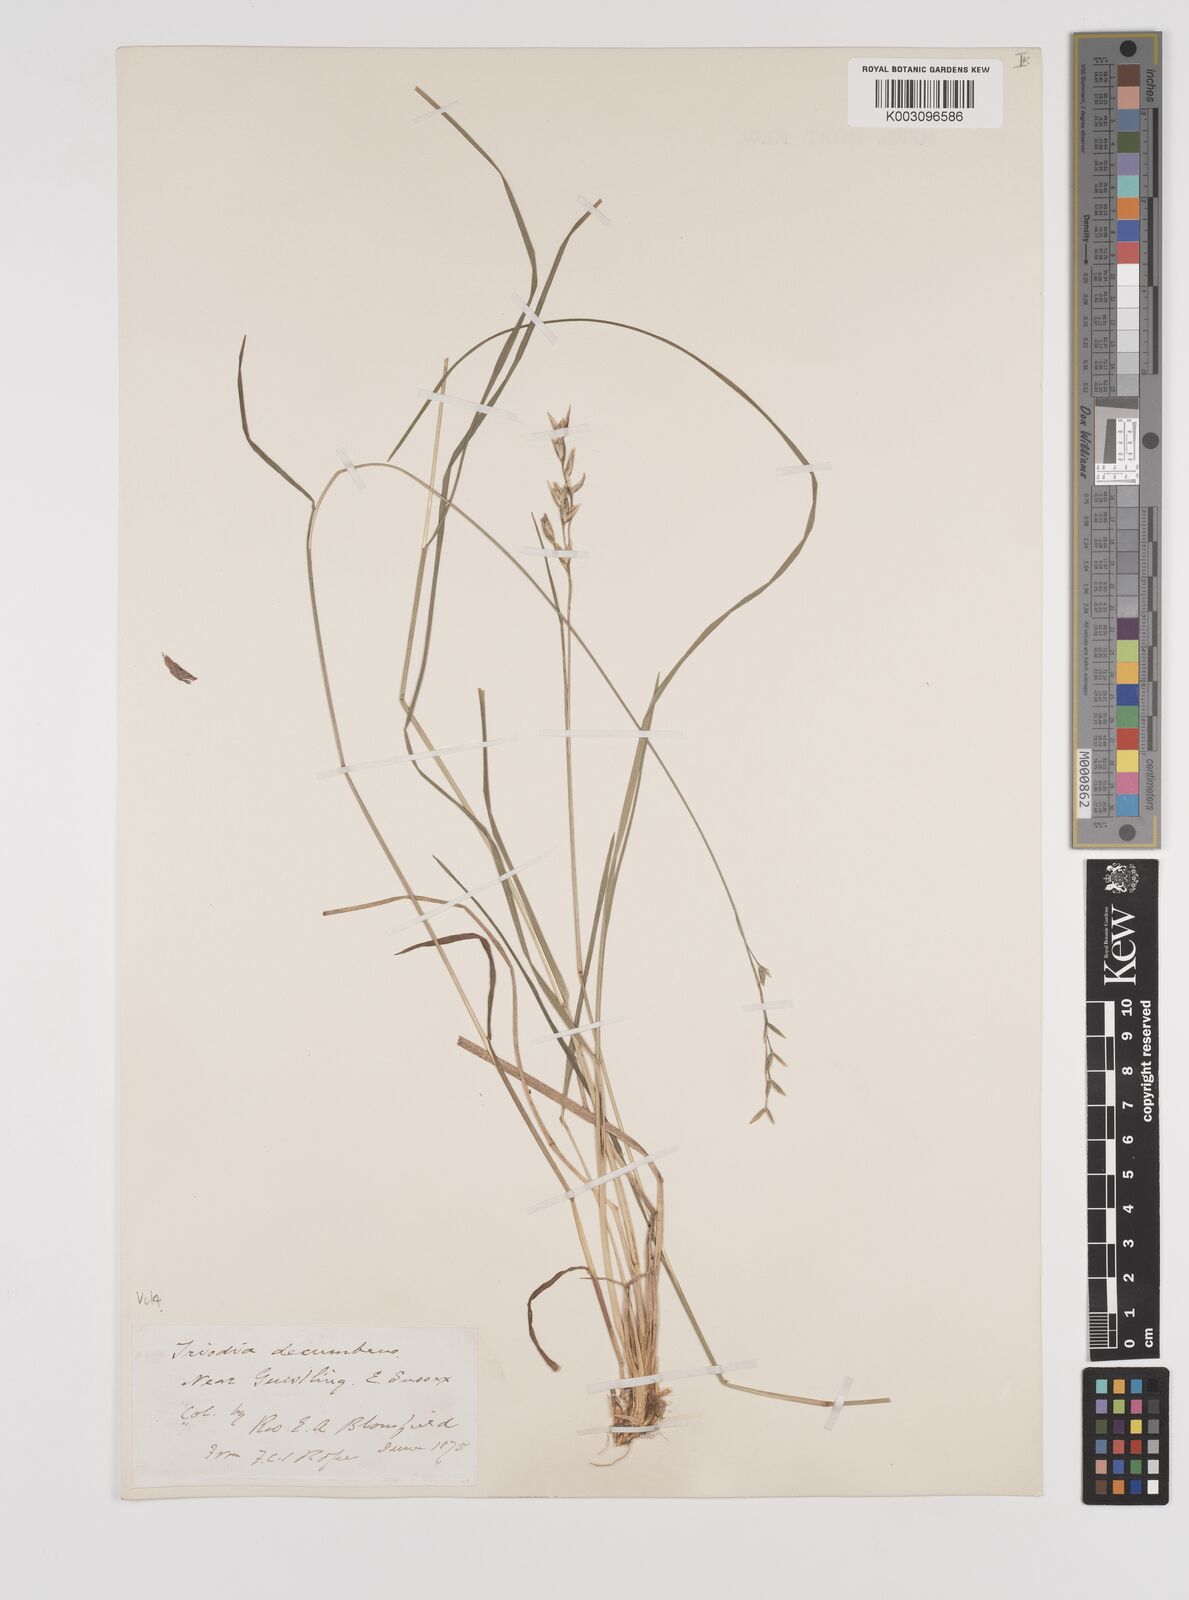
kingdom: Plantae
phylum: Tracheophyta
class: Liliopsida
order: Poales
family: Poaceae
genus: Danthonia
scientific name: Danthonia decumbens
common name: Common heathgrass
